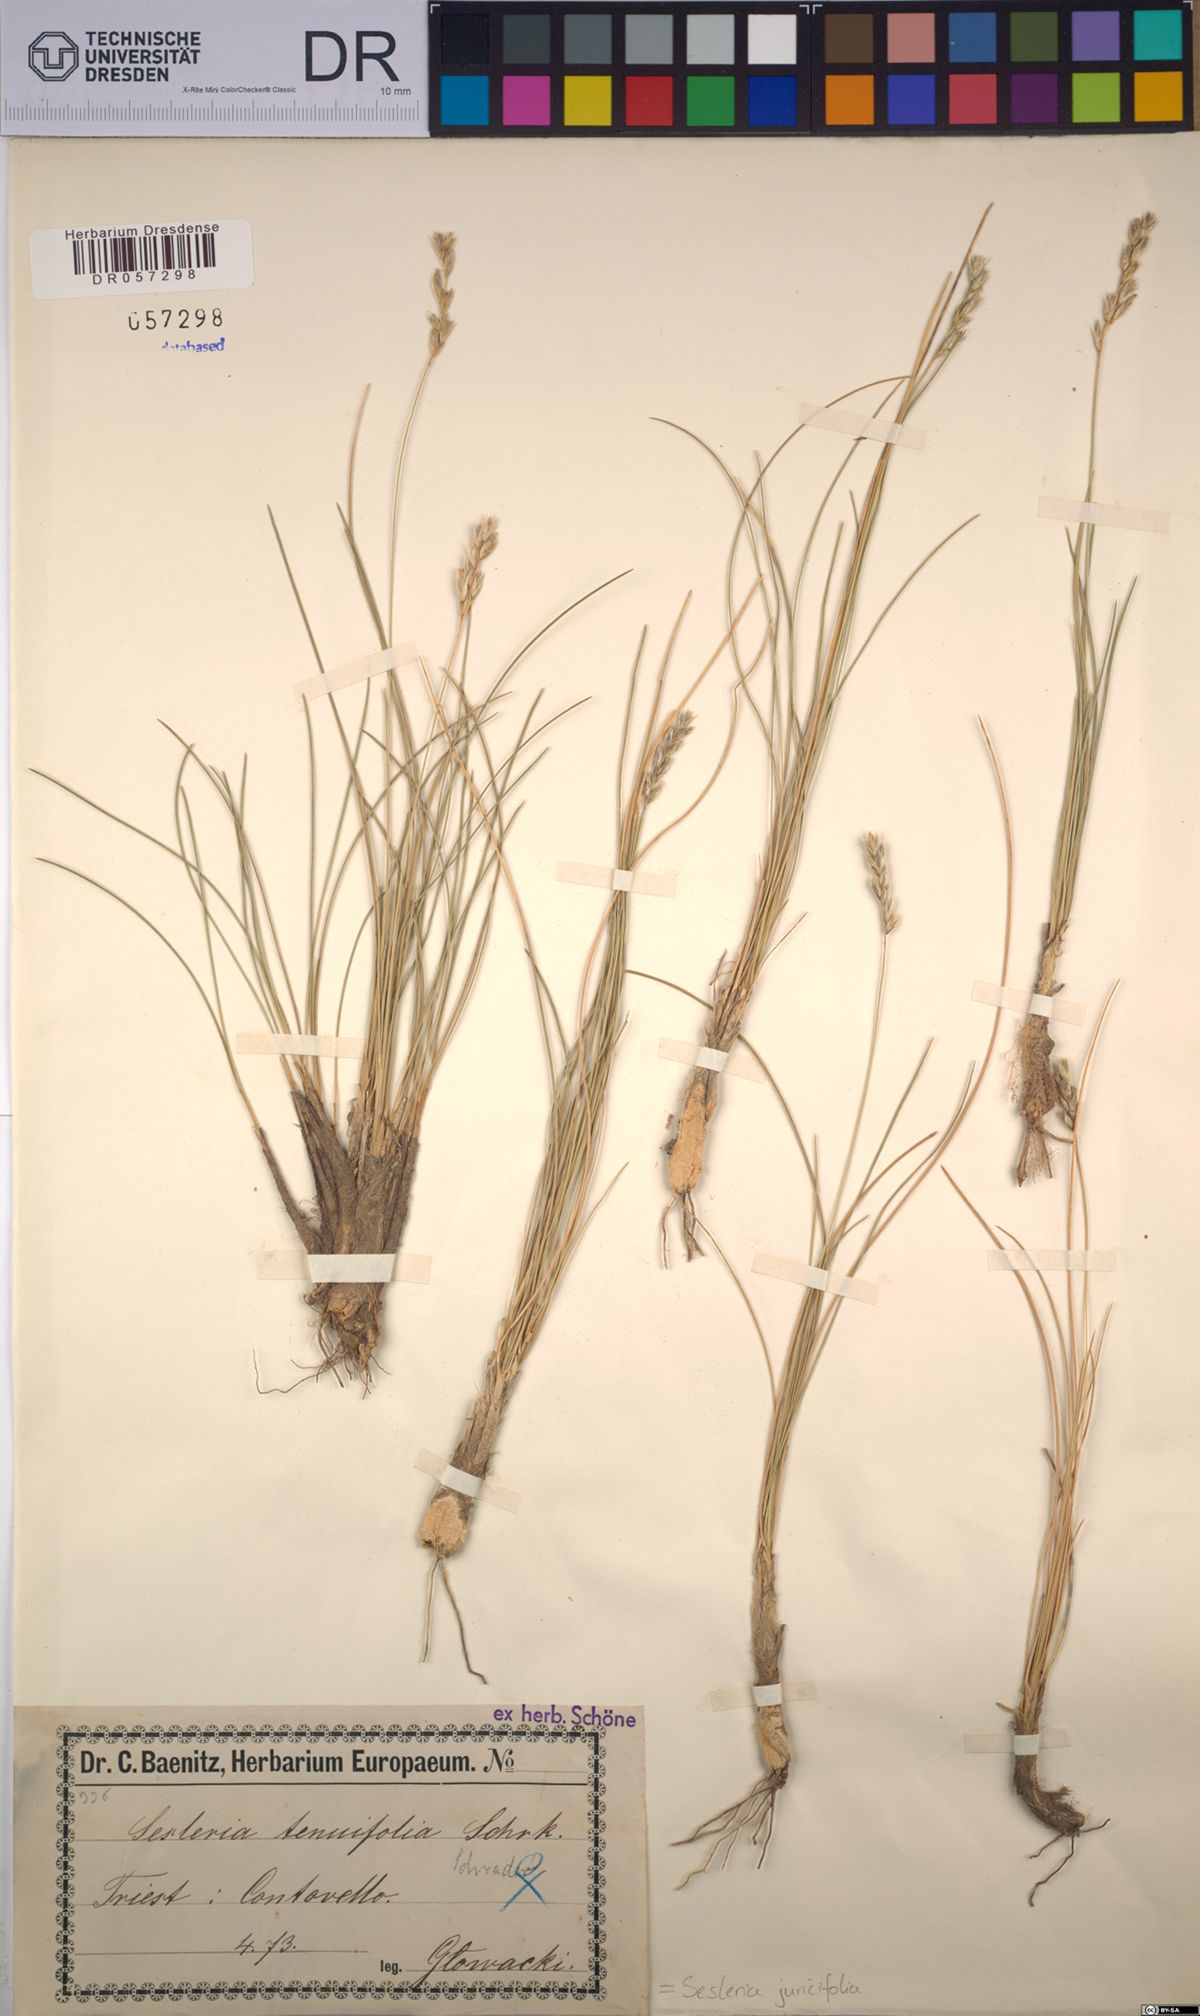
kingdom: Plantae
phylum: Tracheophyta
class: Liliopsida
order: Poales
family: Poaceae
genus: Sesleria
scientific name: Sesleria juncifolia
